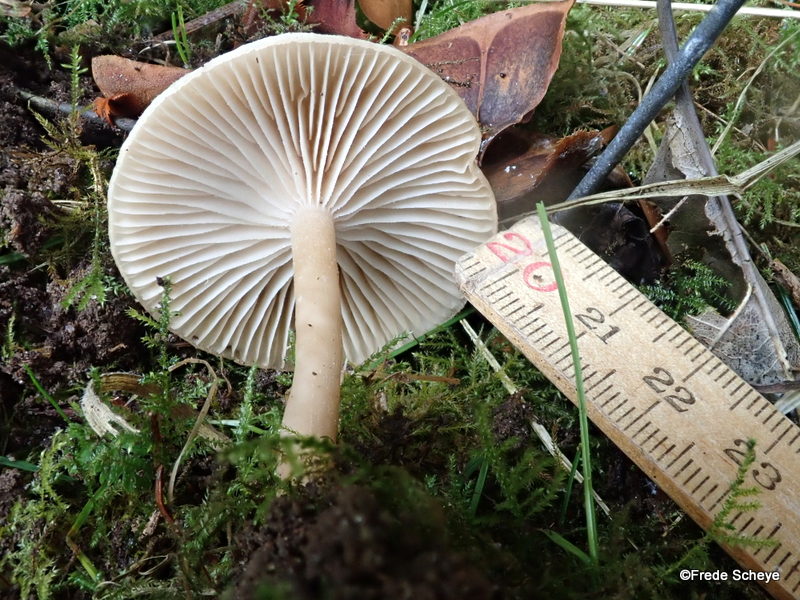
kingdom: Fungi
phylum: Basidiomycota
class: Agaricomycetes
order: Agaricales
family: Tricholomataceae
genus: Clitocybe
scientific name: Clitocybe fragrans
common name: vellugtende tragthat
